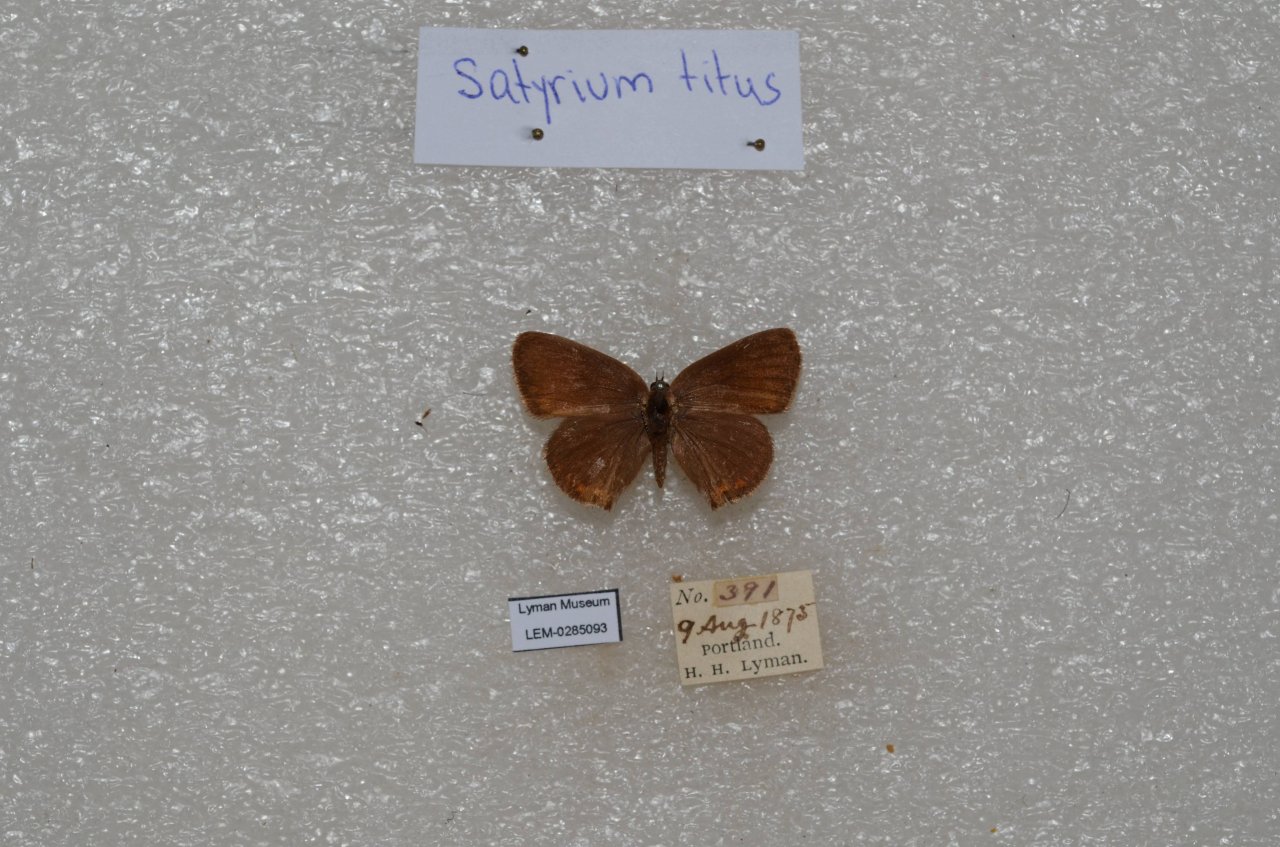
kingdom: Animalia
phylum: Arthropoda
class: Insecta
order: Lepidoptera
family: Lycaenidae
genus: Harkenclenus
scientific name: Harkenclenus titus
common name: Coral Hairstreak
